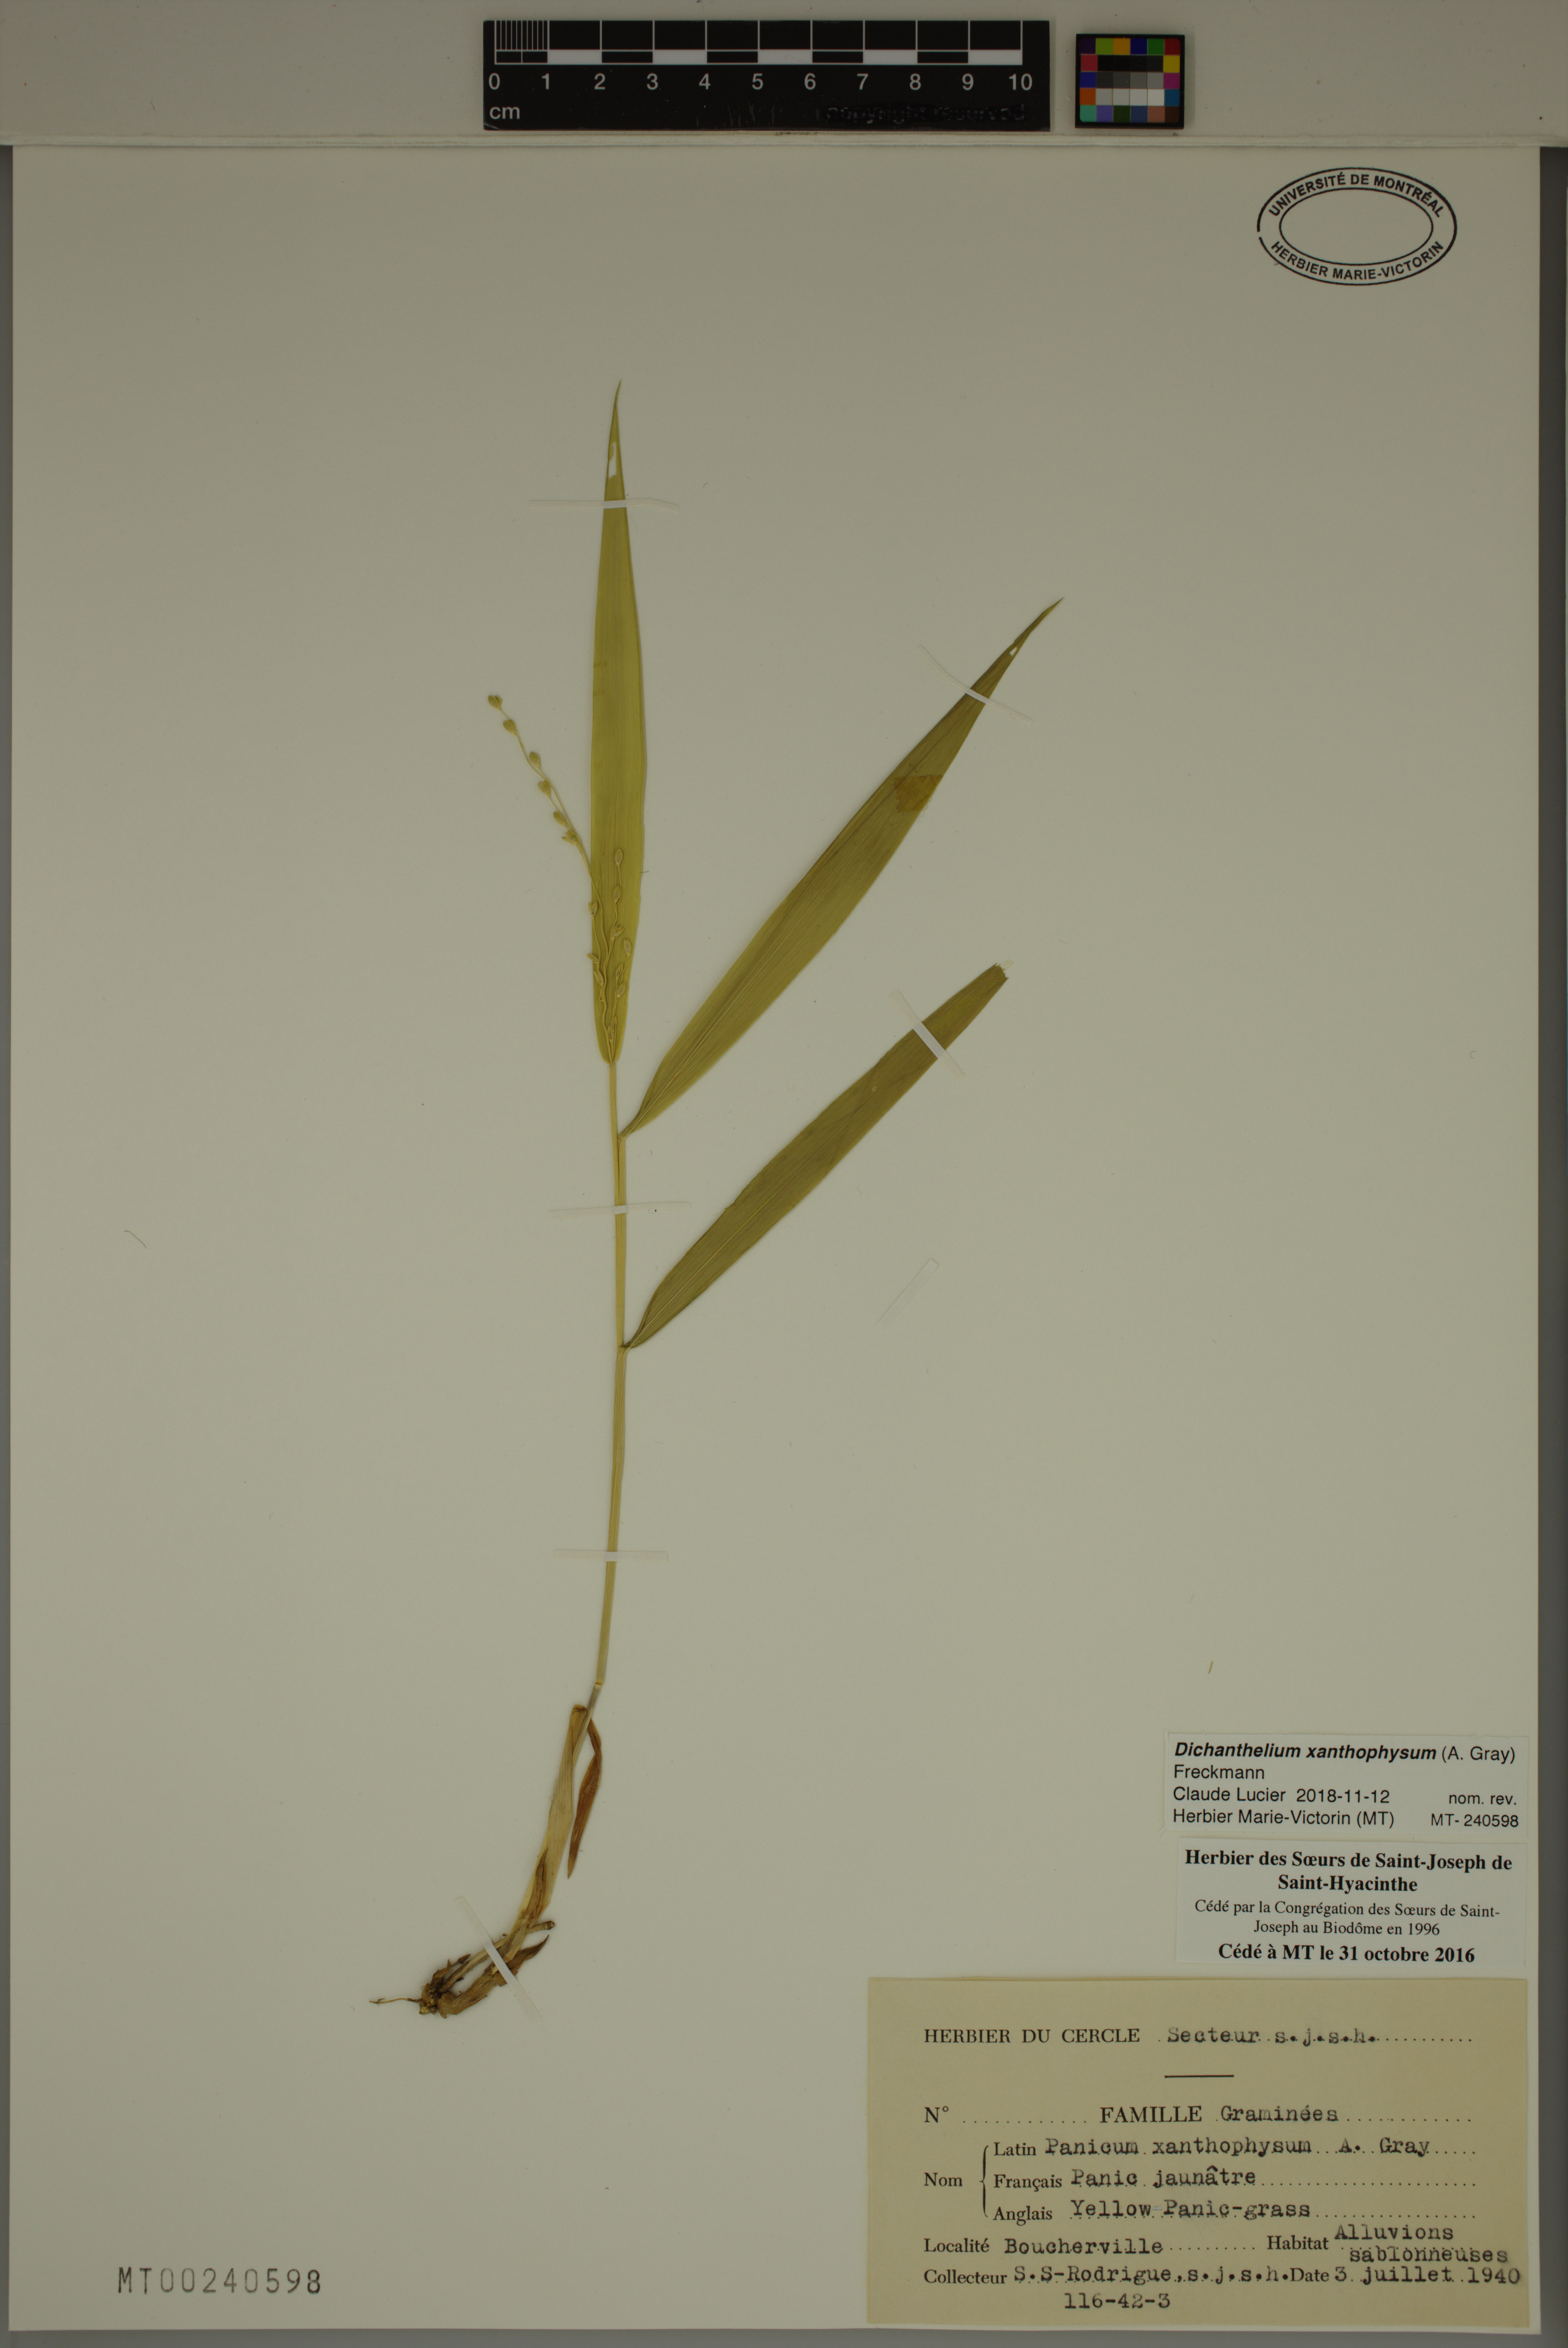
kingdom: Plantae
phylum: Tracheophyta
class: Liliopsida
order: Poales
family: Poaceae
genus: Dichanthelium
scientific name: Dichanthelium xanthophysum
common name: Pale panicgrass
